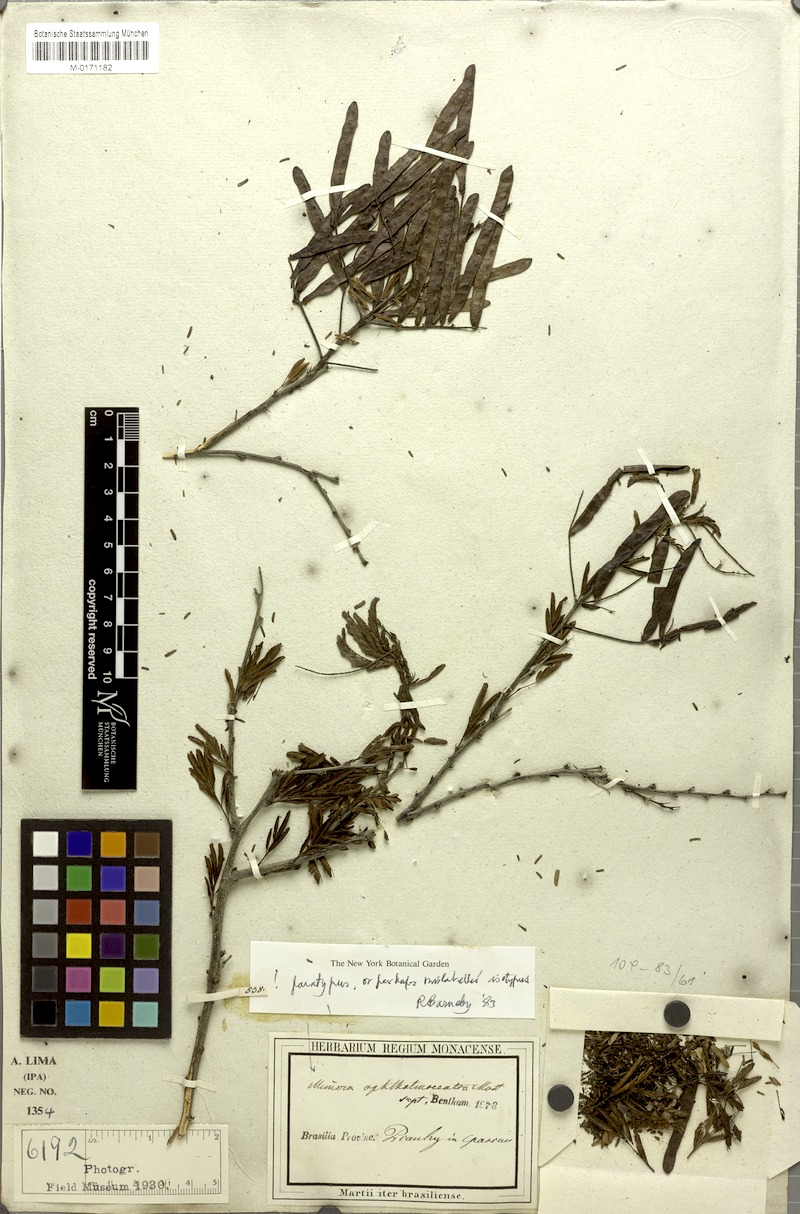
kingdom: Plantae
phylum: Tracheophyta
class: Magnoliopsida
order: Fabales
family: Fabaceae
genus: Mimosa
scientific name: Mimosa ophthalmocentra
